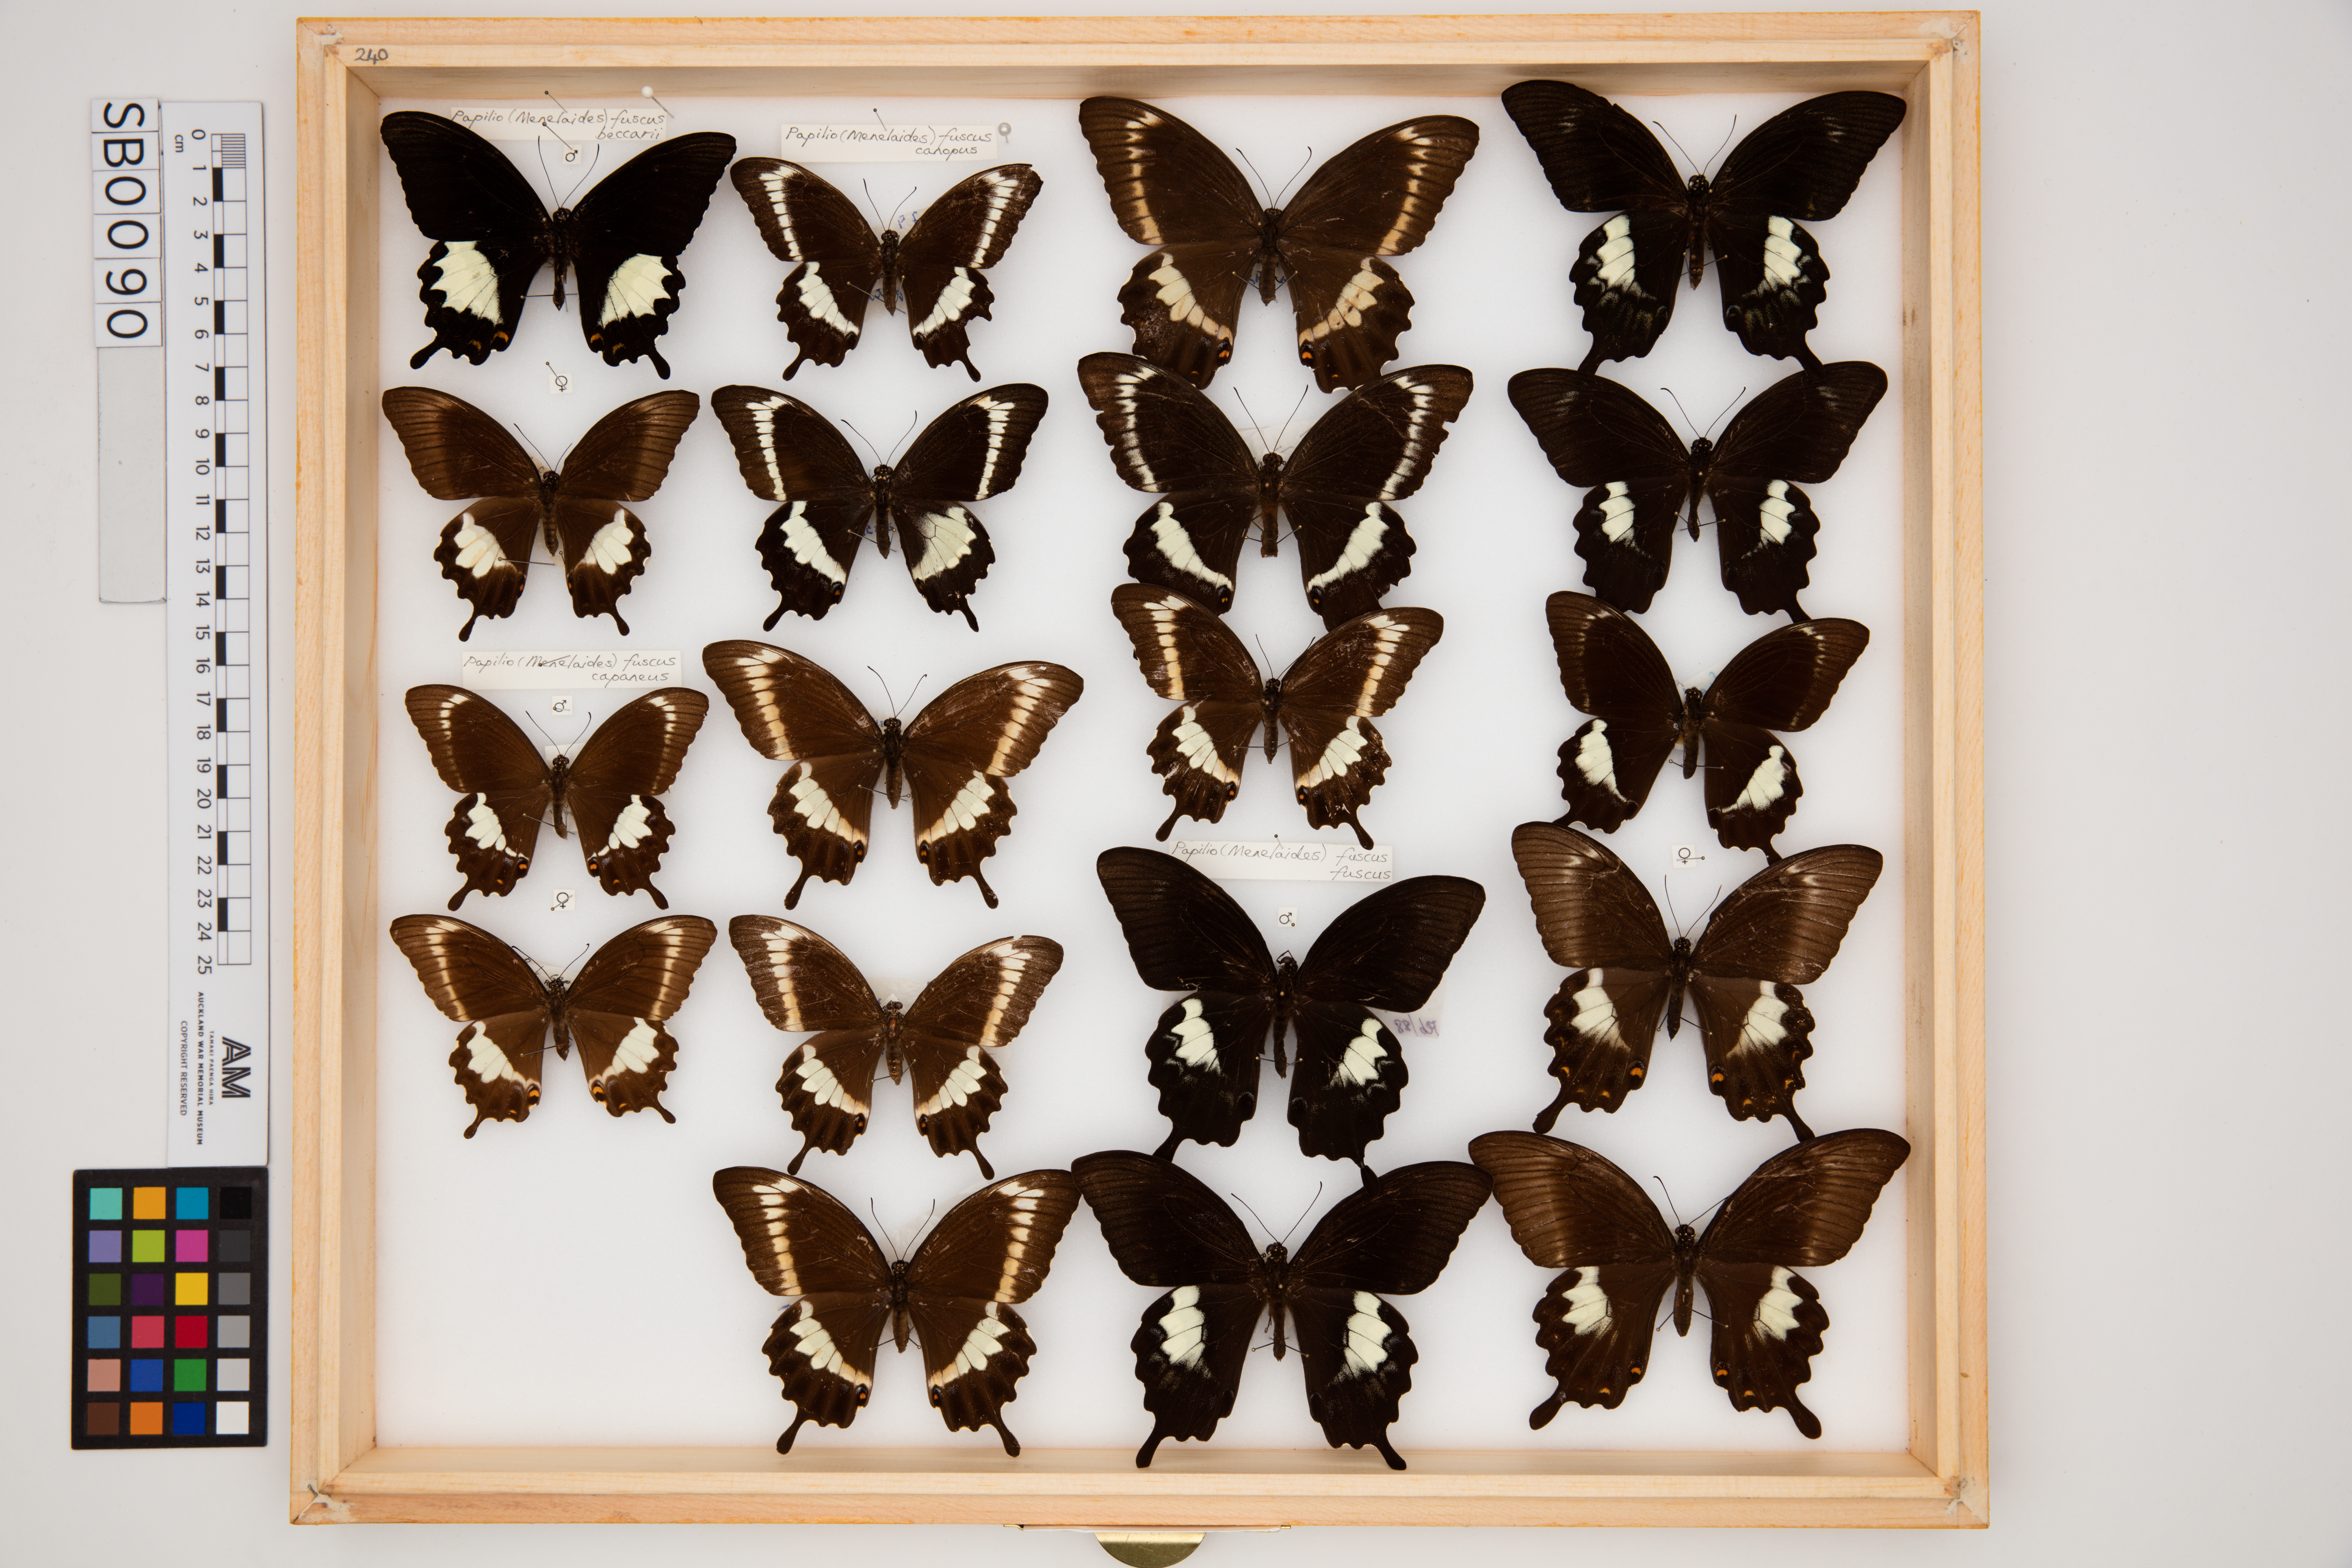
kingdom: Animalia
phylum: Arthropoda
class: Insecta
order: Lepidoptera
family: Papilionidae
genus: Papilio
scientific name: Papilio fuscus
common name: Fuscous swallowtail
